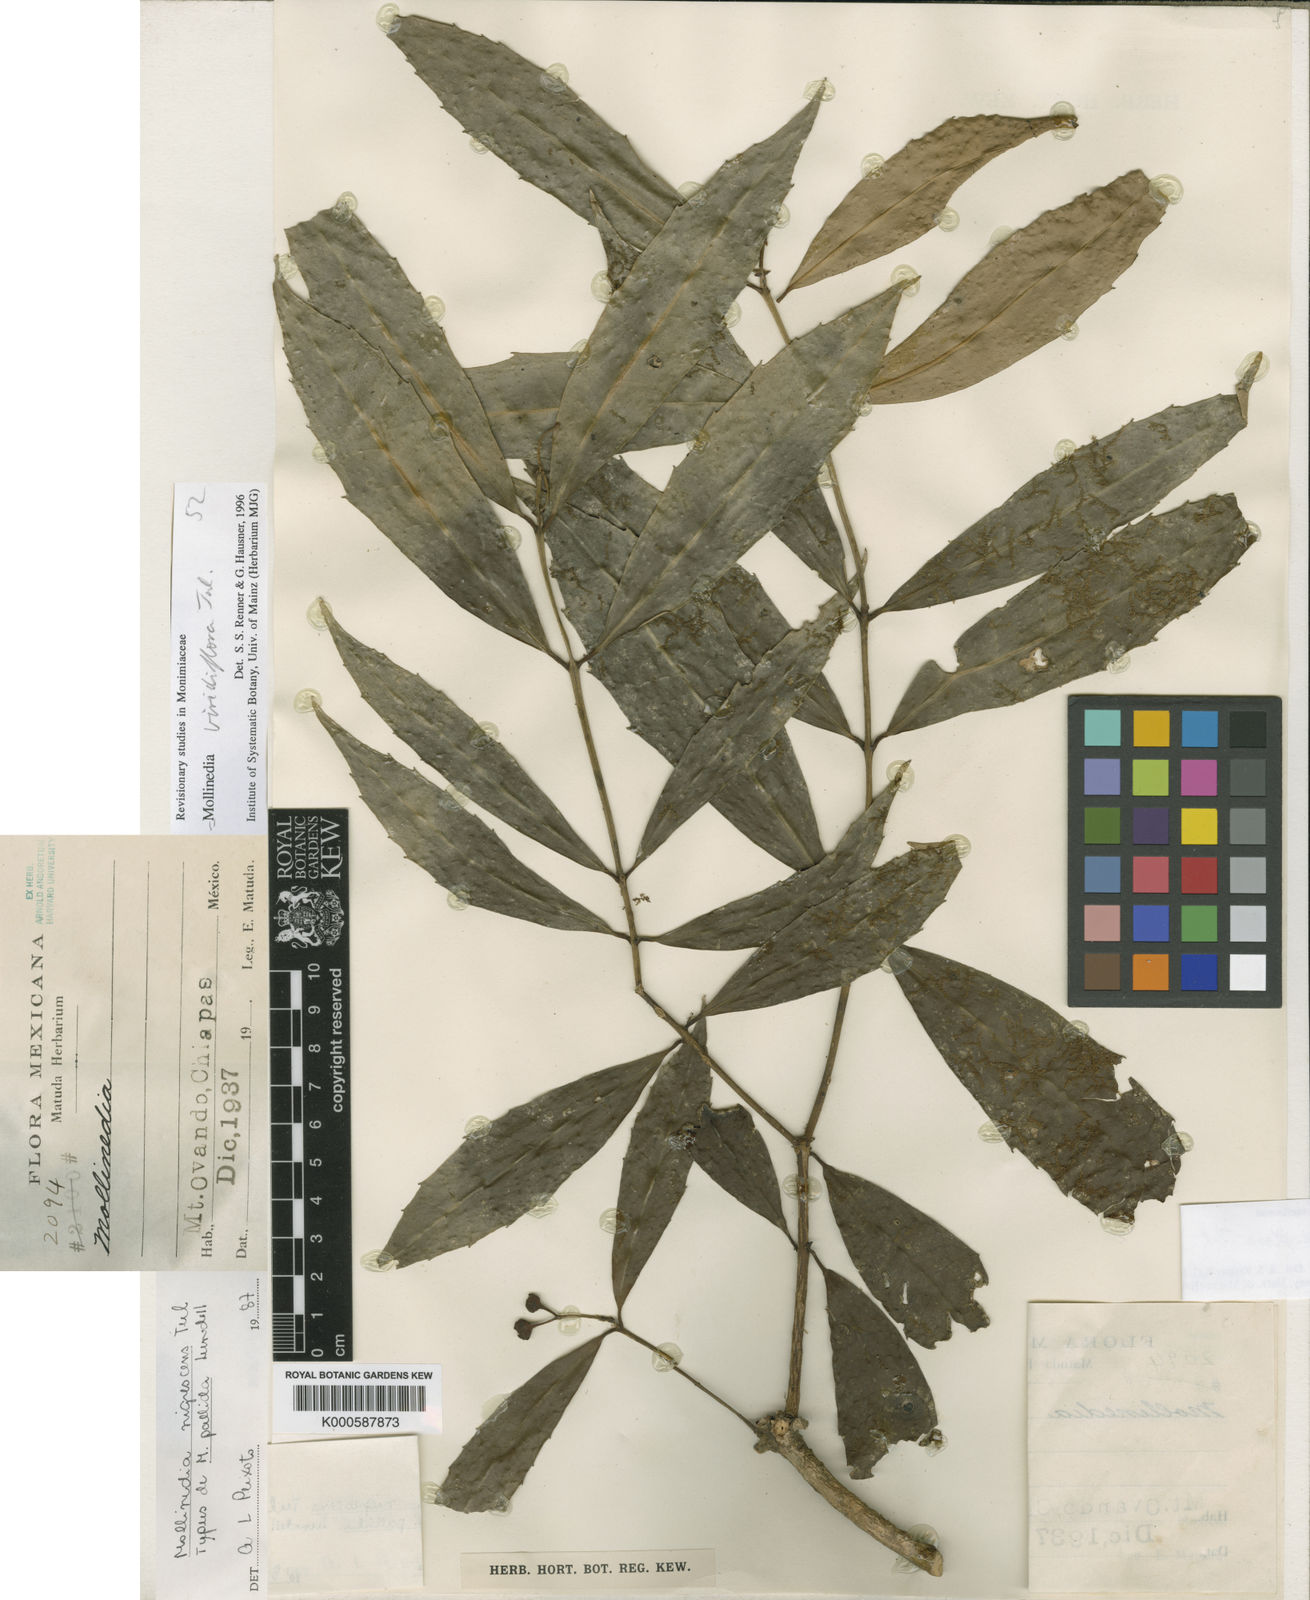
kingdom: Plantae
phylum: Tracheophyta
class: Magnoliopsida
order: Laurales
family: Monimiaceae
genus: Mollinedia
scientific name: Mollinedia pallida
